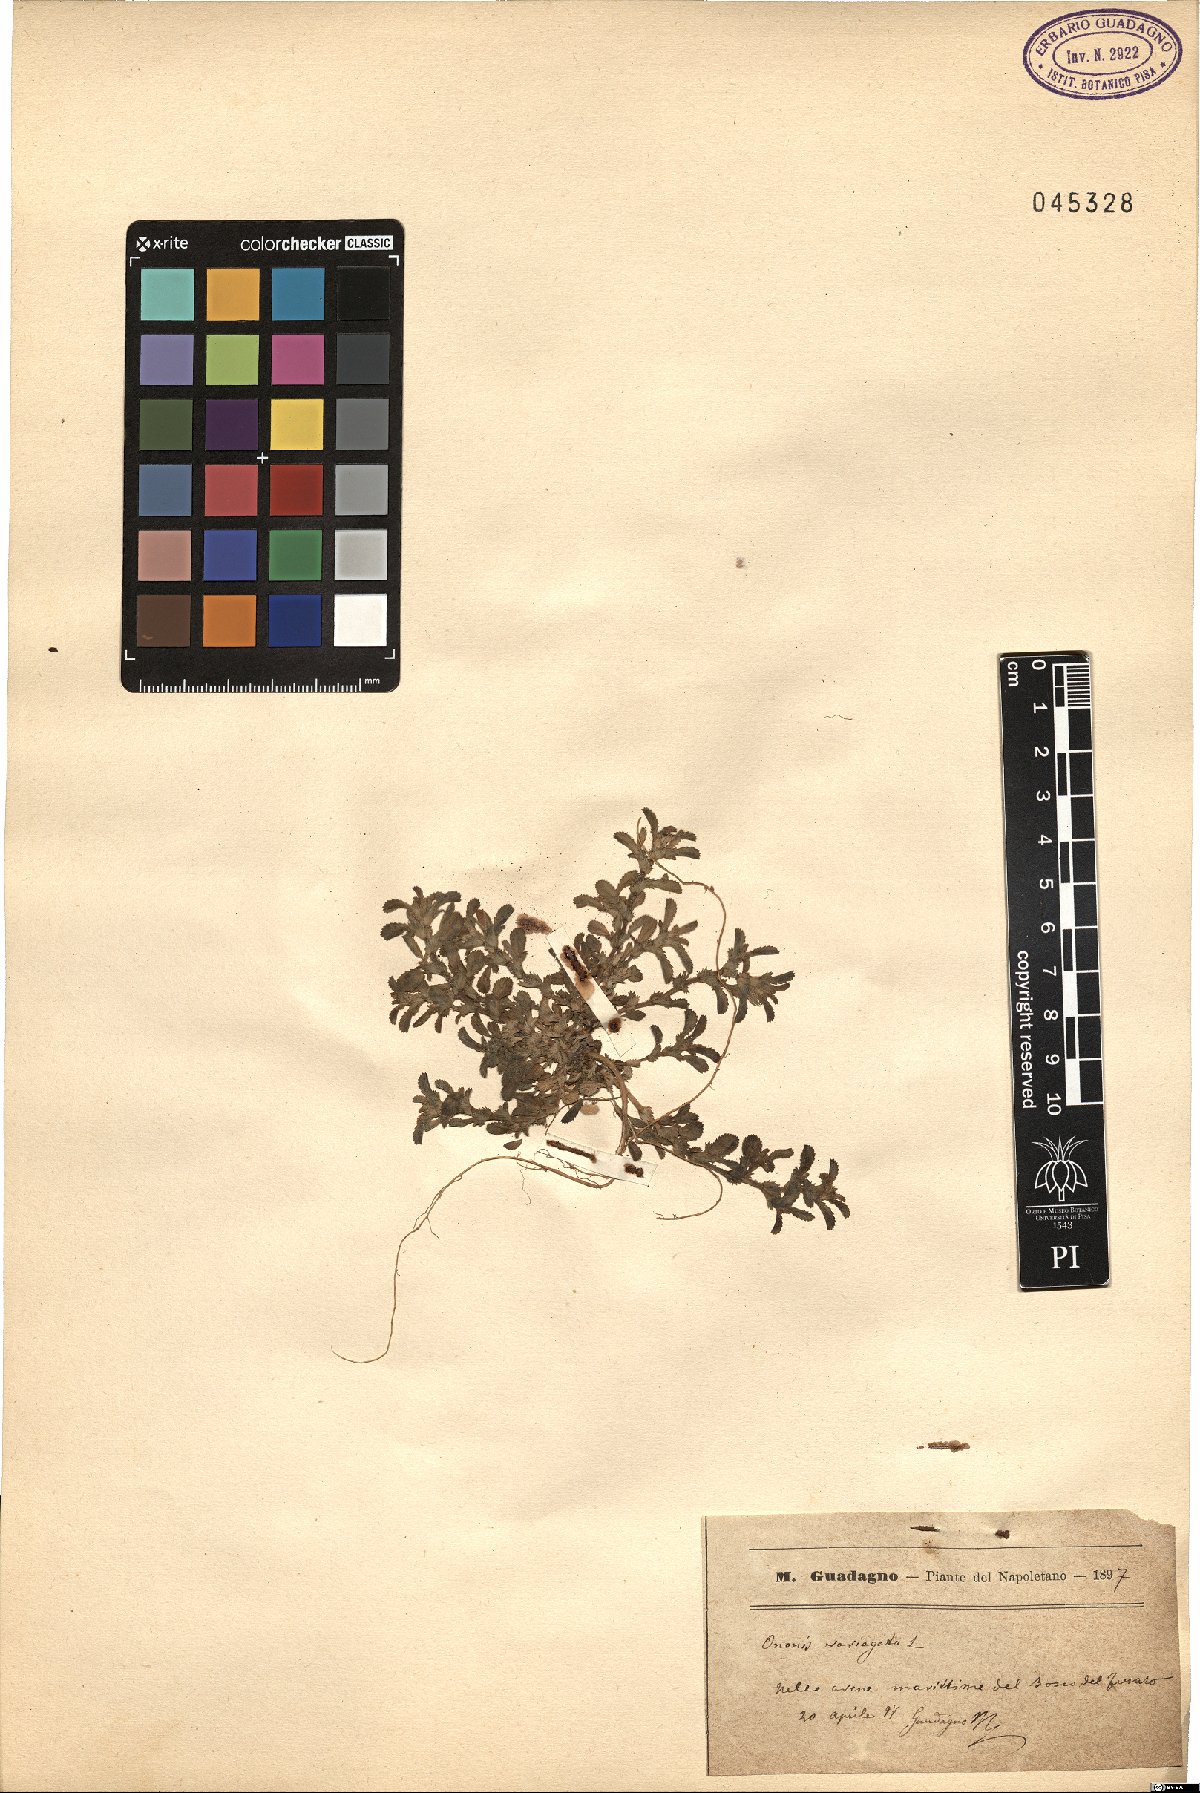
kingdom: Plantae
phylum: Tracheophyta
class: Magnoliopsida
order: Fabales
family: Fabaceae
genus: Ononis
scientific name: Ononis variegata
